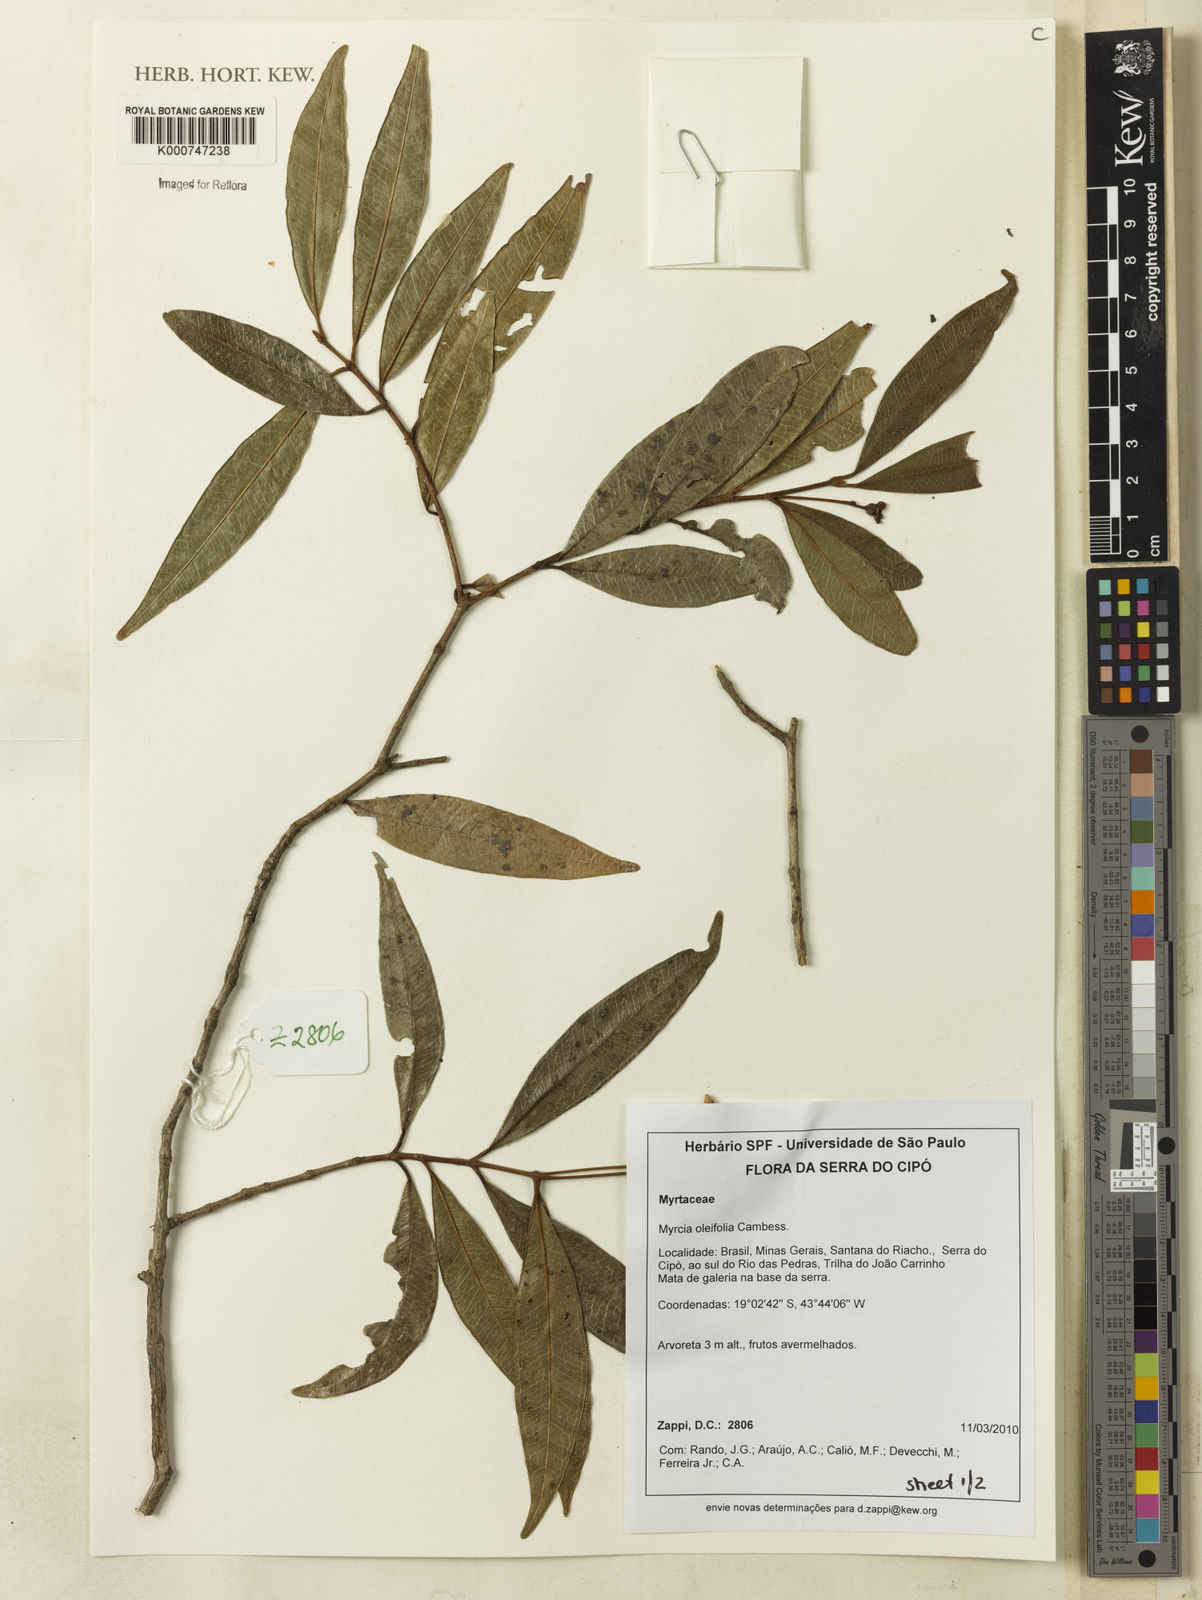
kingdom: Plantae
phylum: Tracheophyta
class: Magnoliopsida
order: Myrtales
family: Myrtaceae
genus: Myrcia
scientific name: Myrcia venulosa
